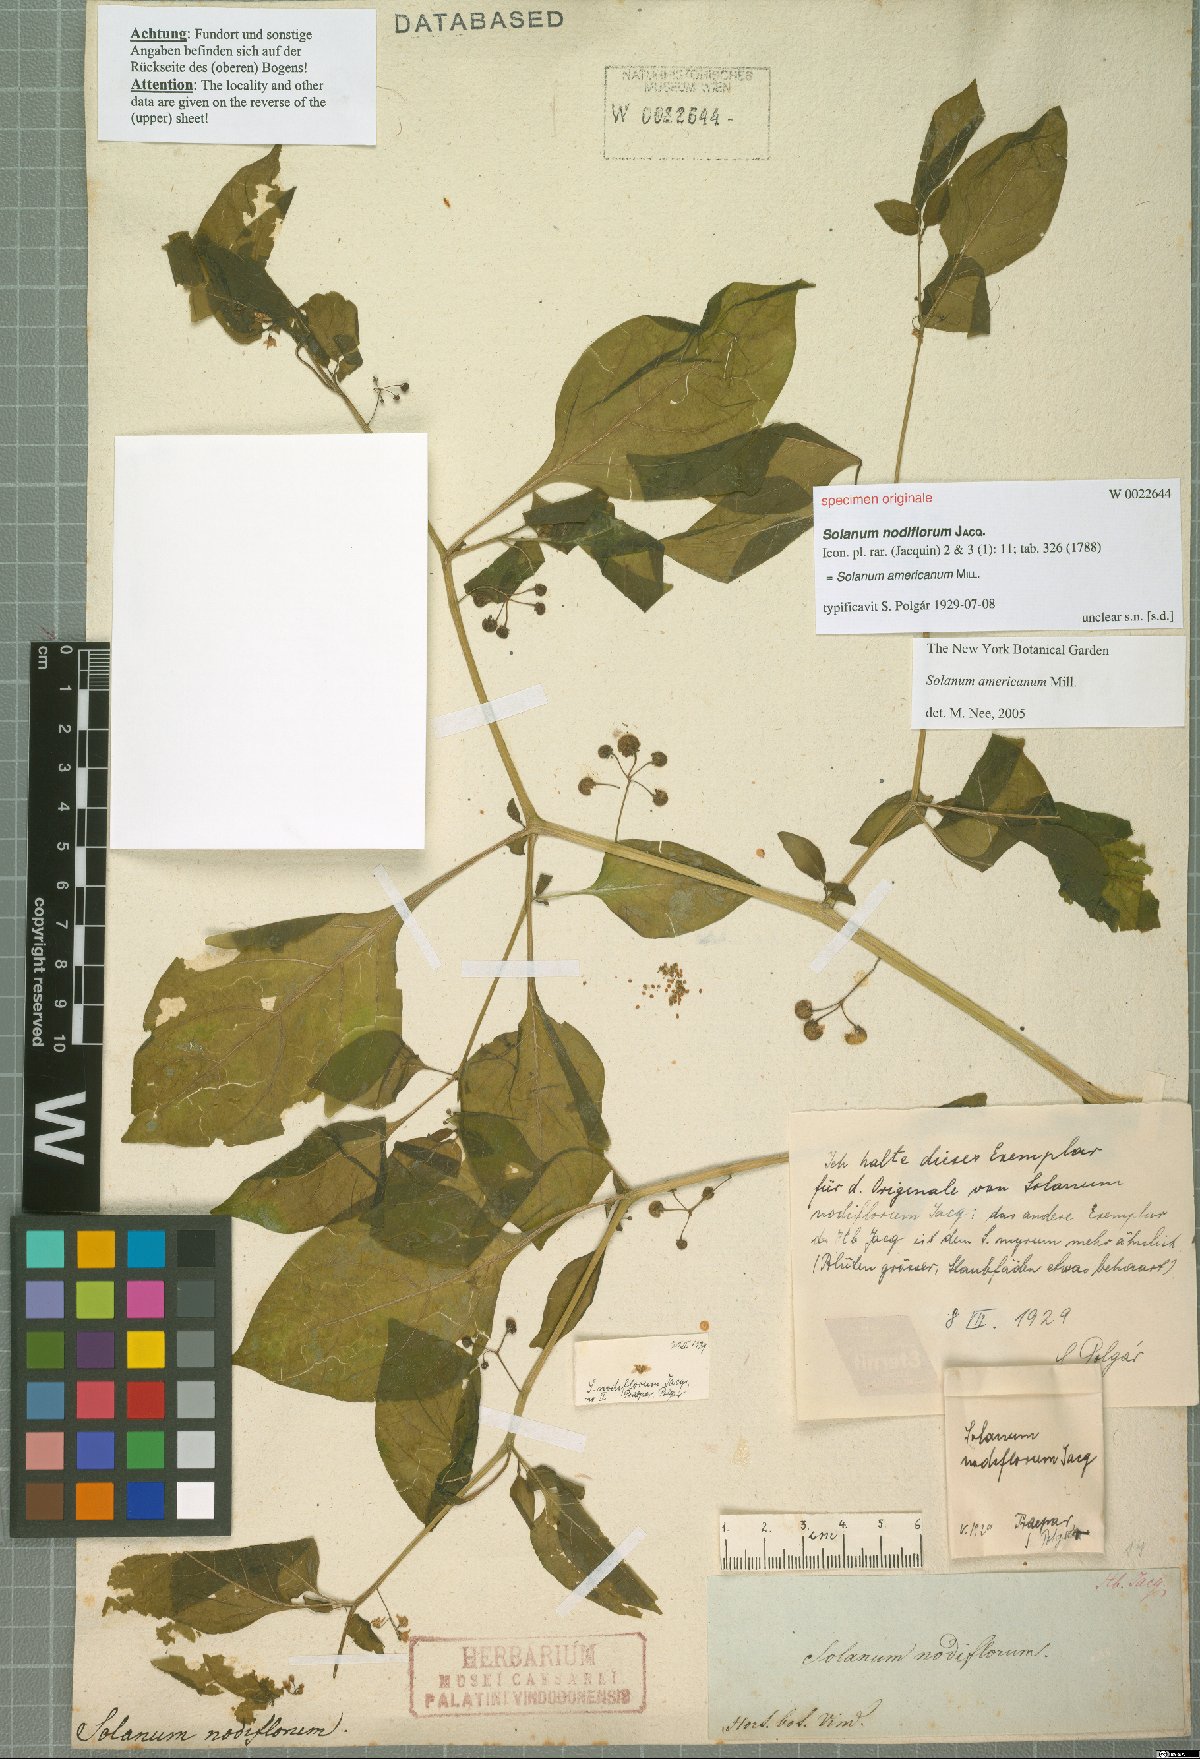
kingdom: Plantae
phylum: Tracheophyta
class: Magnoliopsida
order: Solanales
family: Solanaceae
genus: Solanum
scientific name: Solanum americanum
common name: American black nightshade
